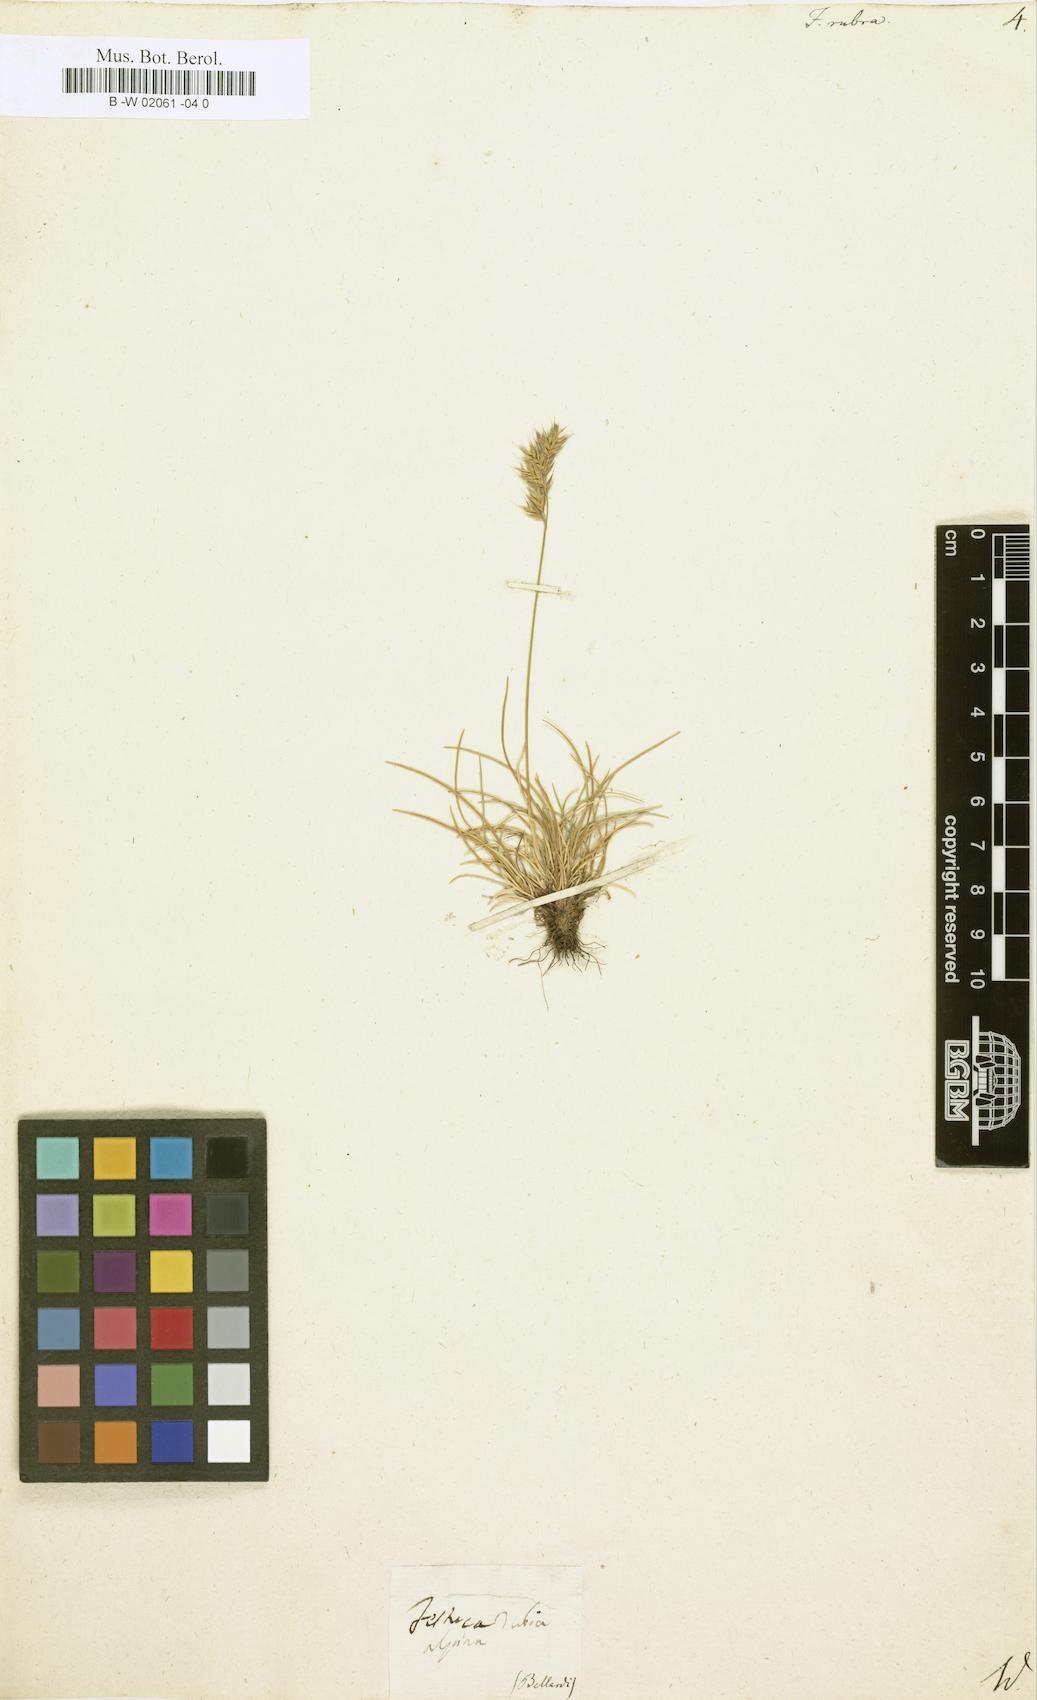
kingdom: Plantae
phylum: Tracheophyta
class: Liliopsida
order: Poales
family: Poaceae
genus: Festuca
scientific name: Festuca rubra
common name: Red fescue
